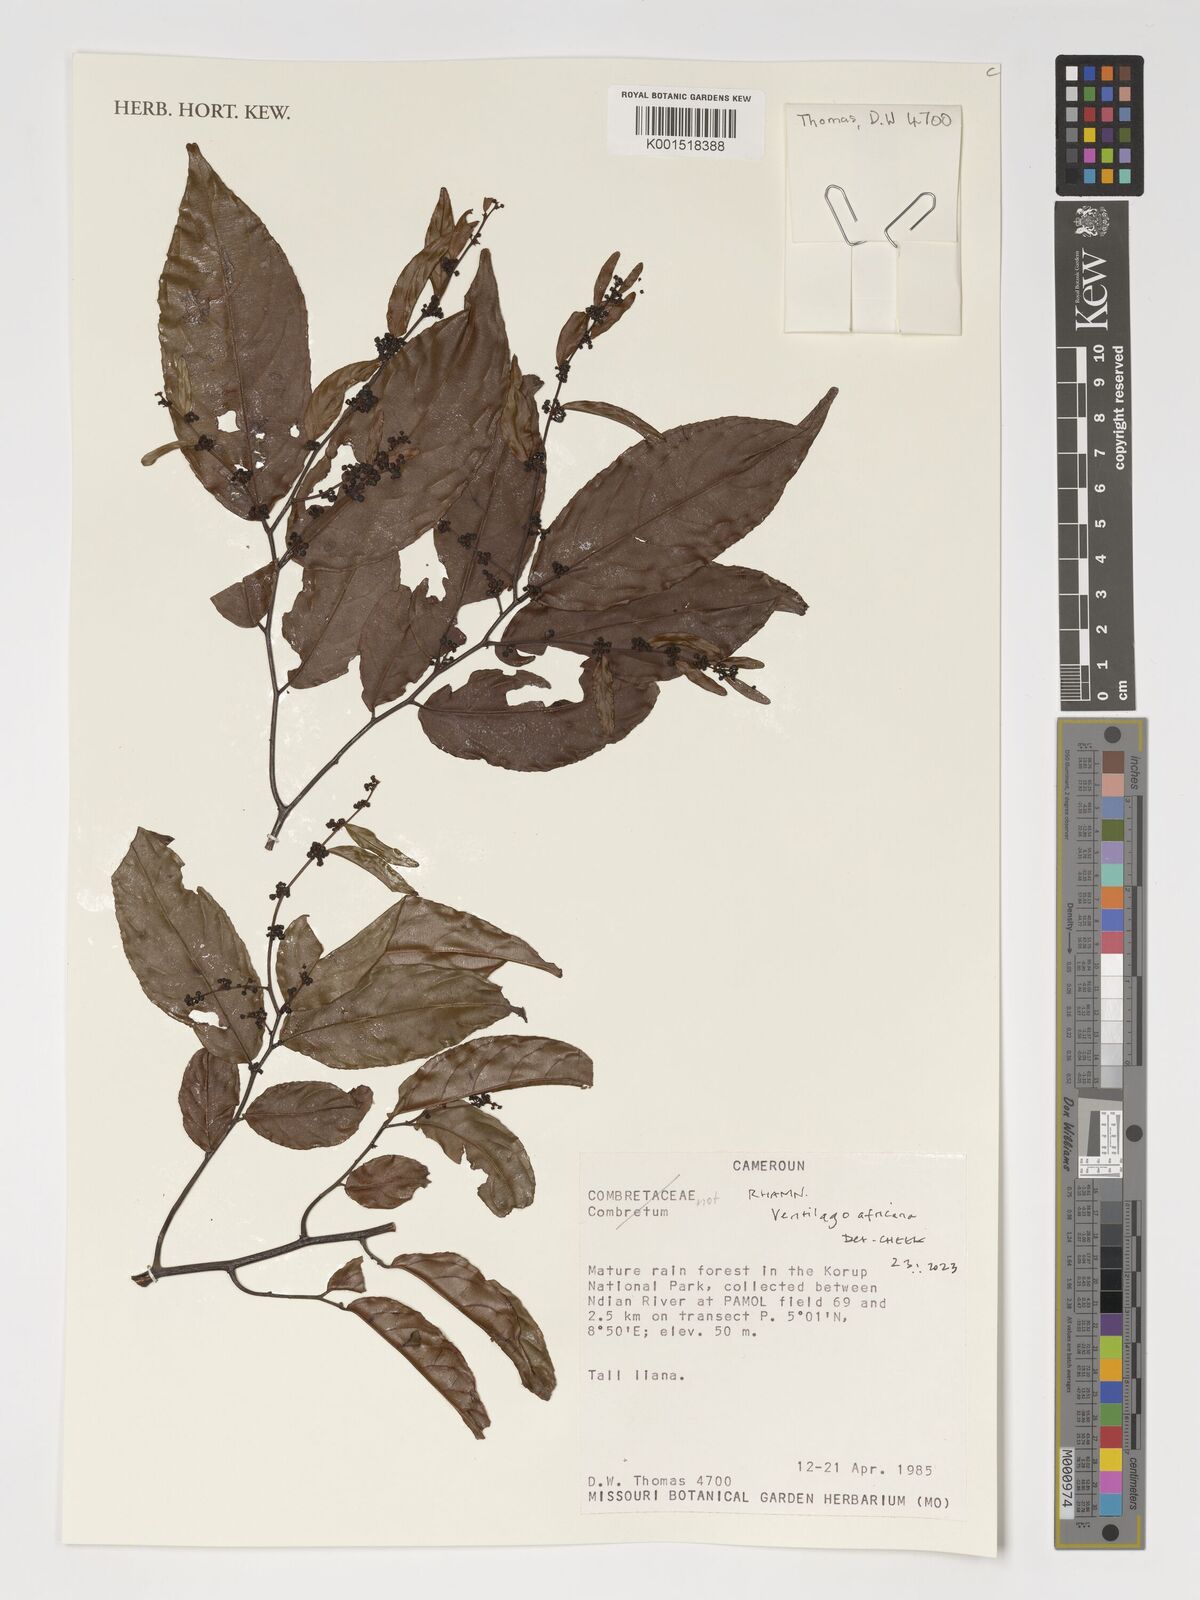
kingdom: Plantae
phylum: Tracheophyta
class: Magnoliopsida
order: Rosales
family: Rhamnaceae
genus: Ventilago
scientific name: Ventilago africana
